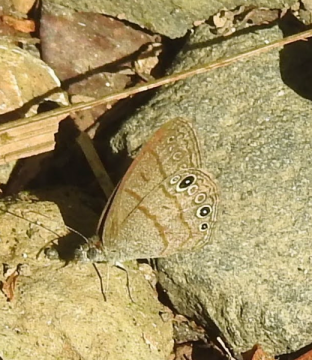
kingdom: Animalia
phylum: Arthropoda
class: Insecta
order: Lepidoptera
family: Nymphalidae
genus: Hermeuptychia
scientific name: Hermeuptychia hermybius
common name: South Texas Satyr
